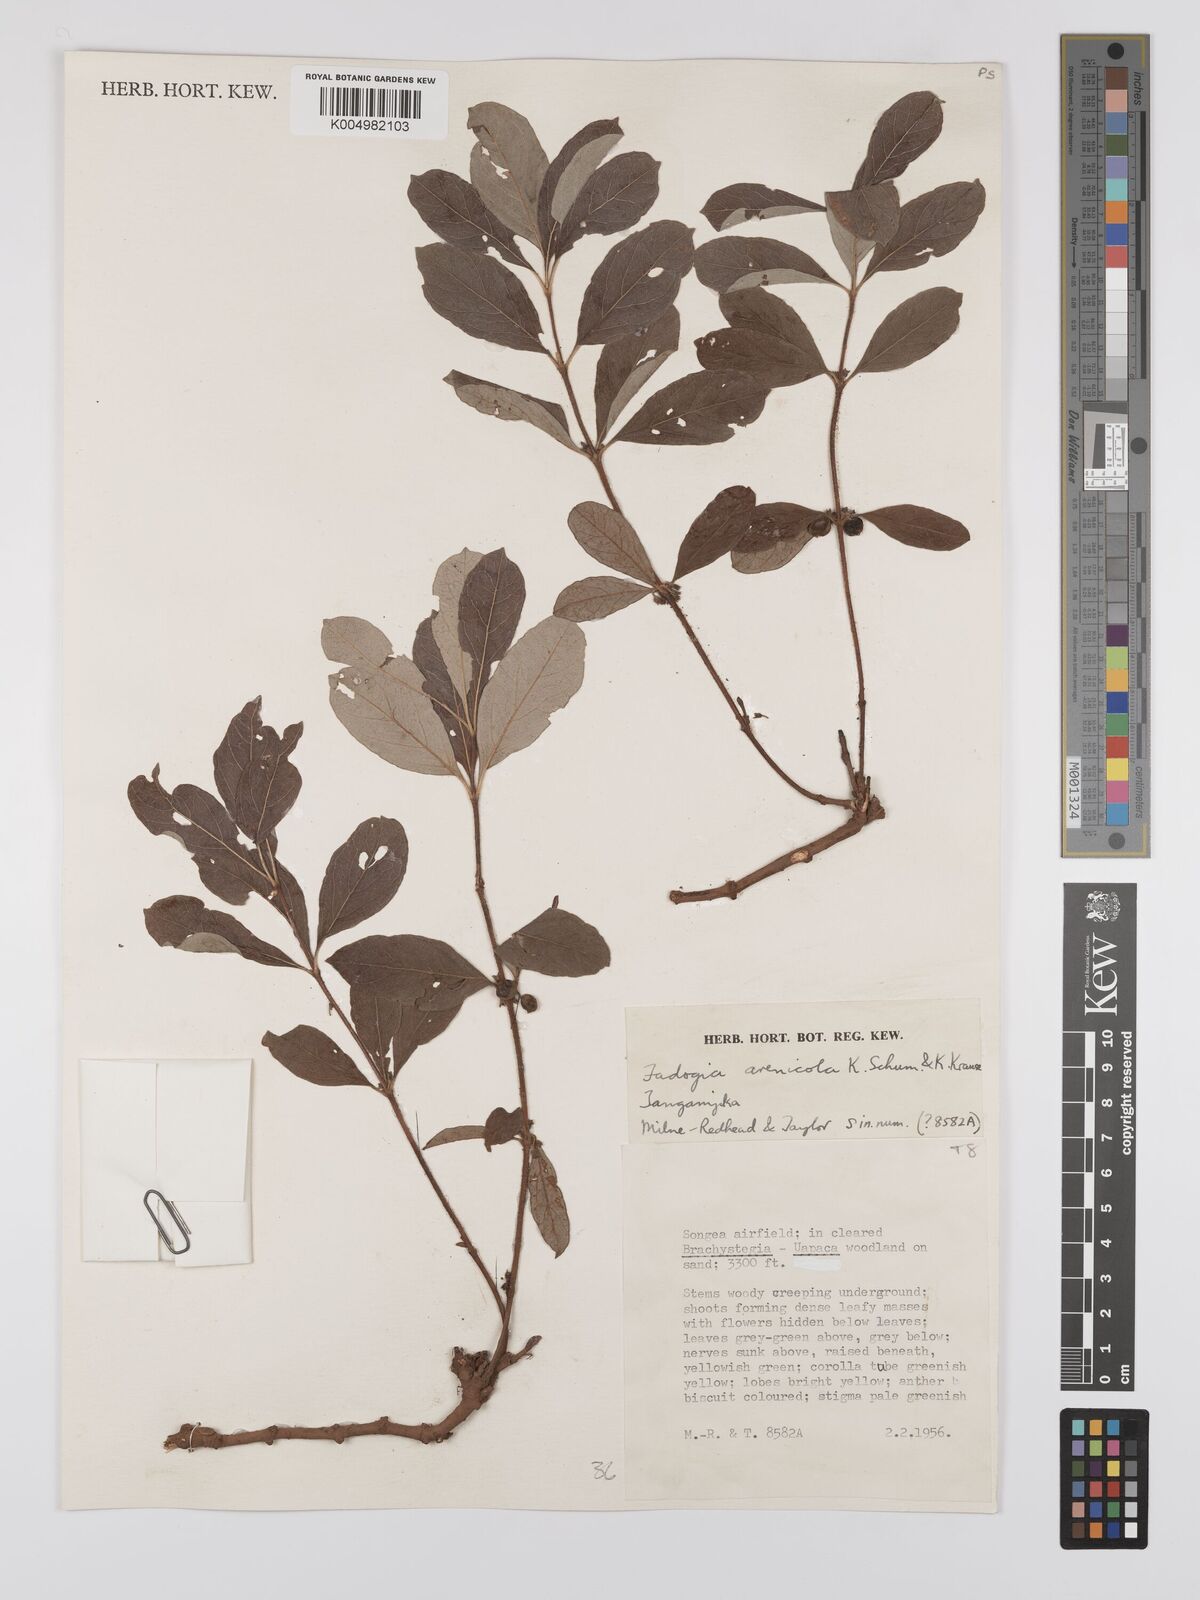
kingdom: Plantae
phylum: Tracheophyta
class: Magnoliopsida
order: Gentianales
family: Rubiaceae
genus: Fadogia
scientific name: Fadogia arenicola
